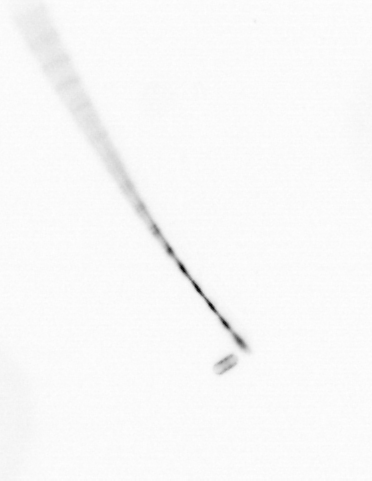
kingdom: Chromista
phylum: Ochrophyta
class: Bacillariophyceae
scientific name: Bacillariophyceae
